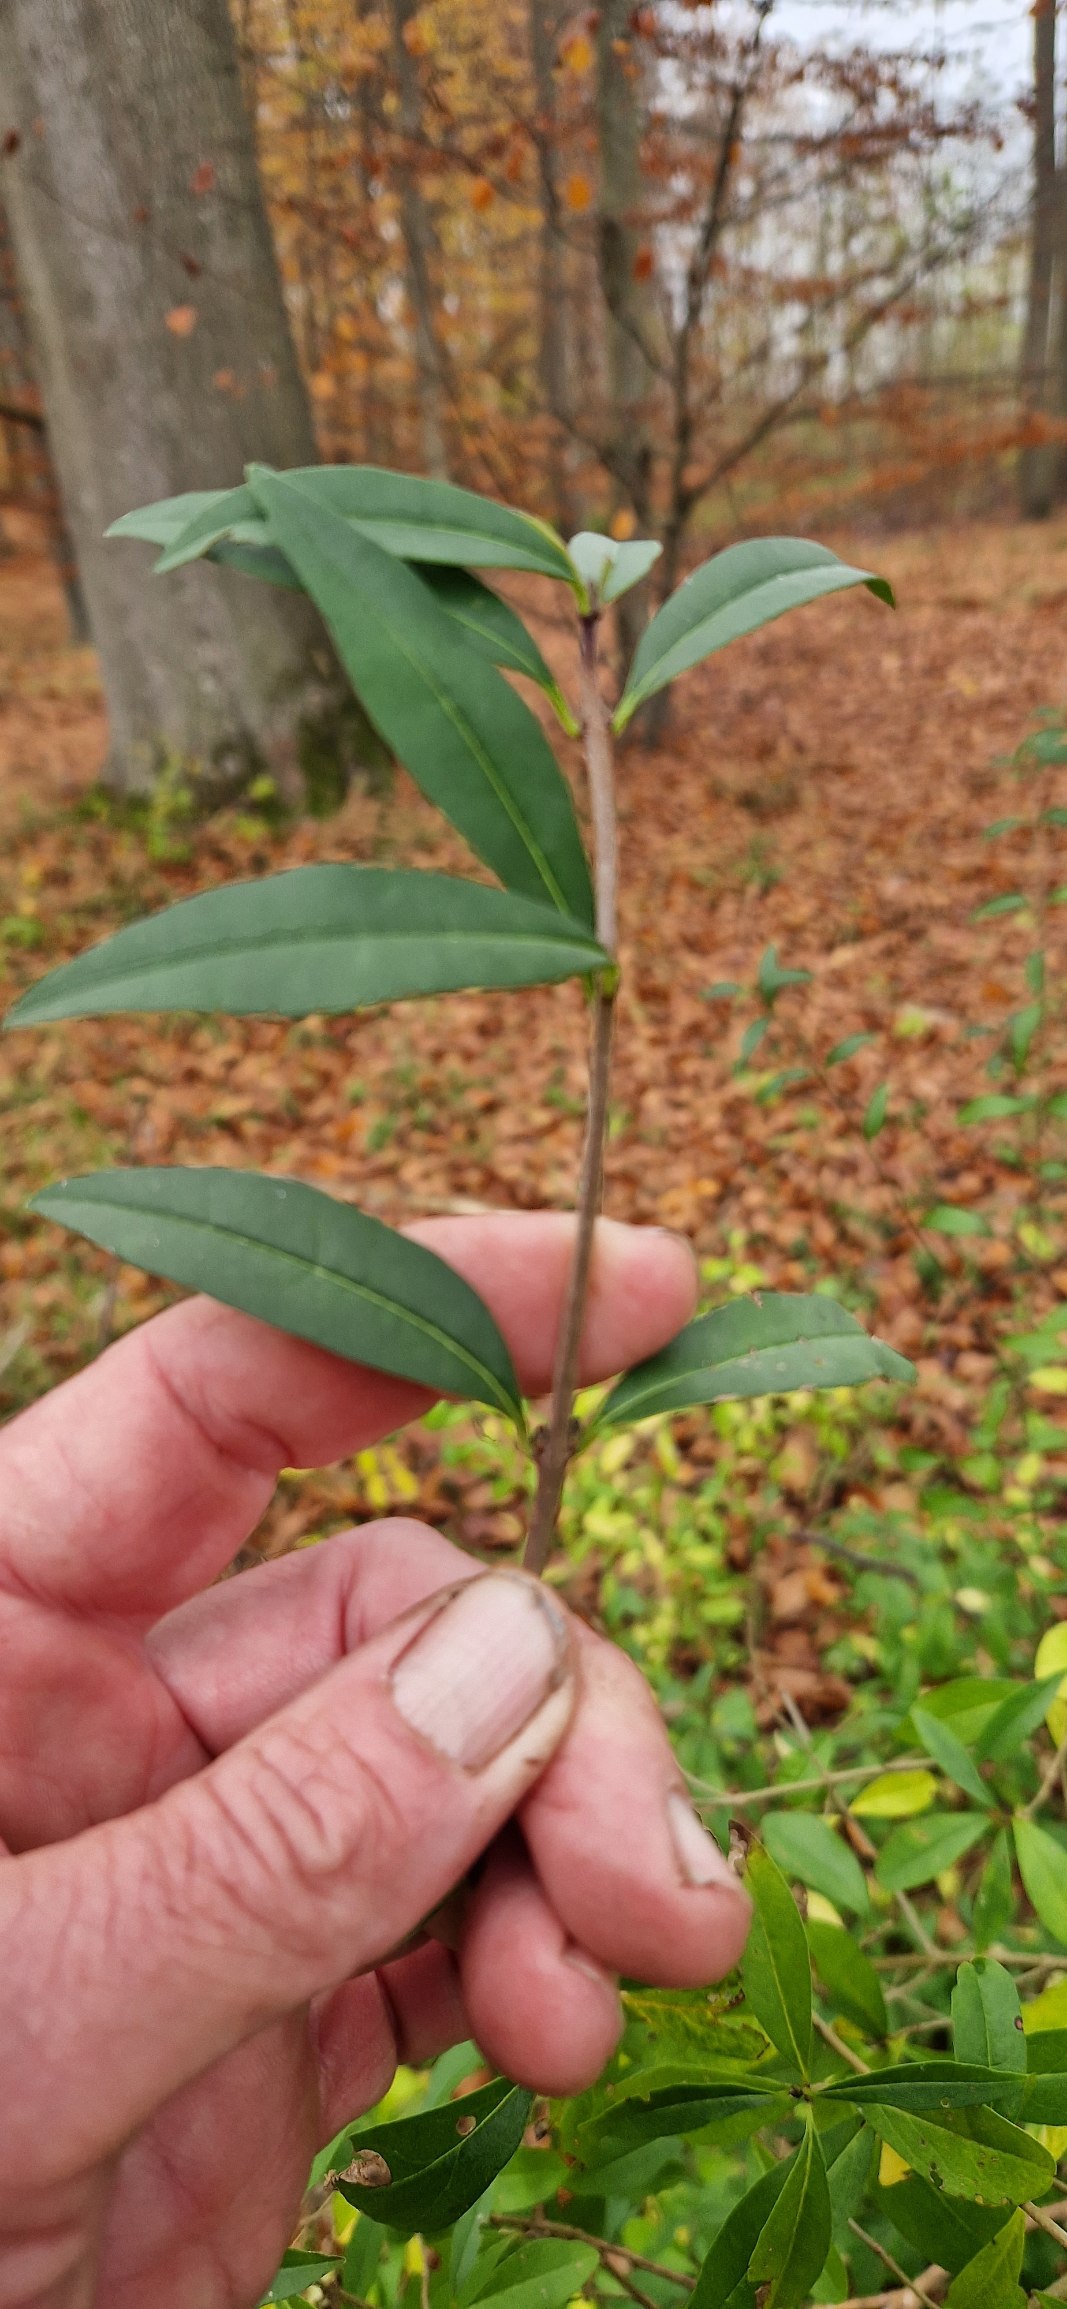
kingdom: Plantae
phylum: Tracheophyta
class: Magnoliopsida
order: Lamiales
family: Oleaceae
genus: Ligustrum
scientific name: Ligustrum vulgare
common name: Liguster
